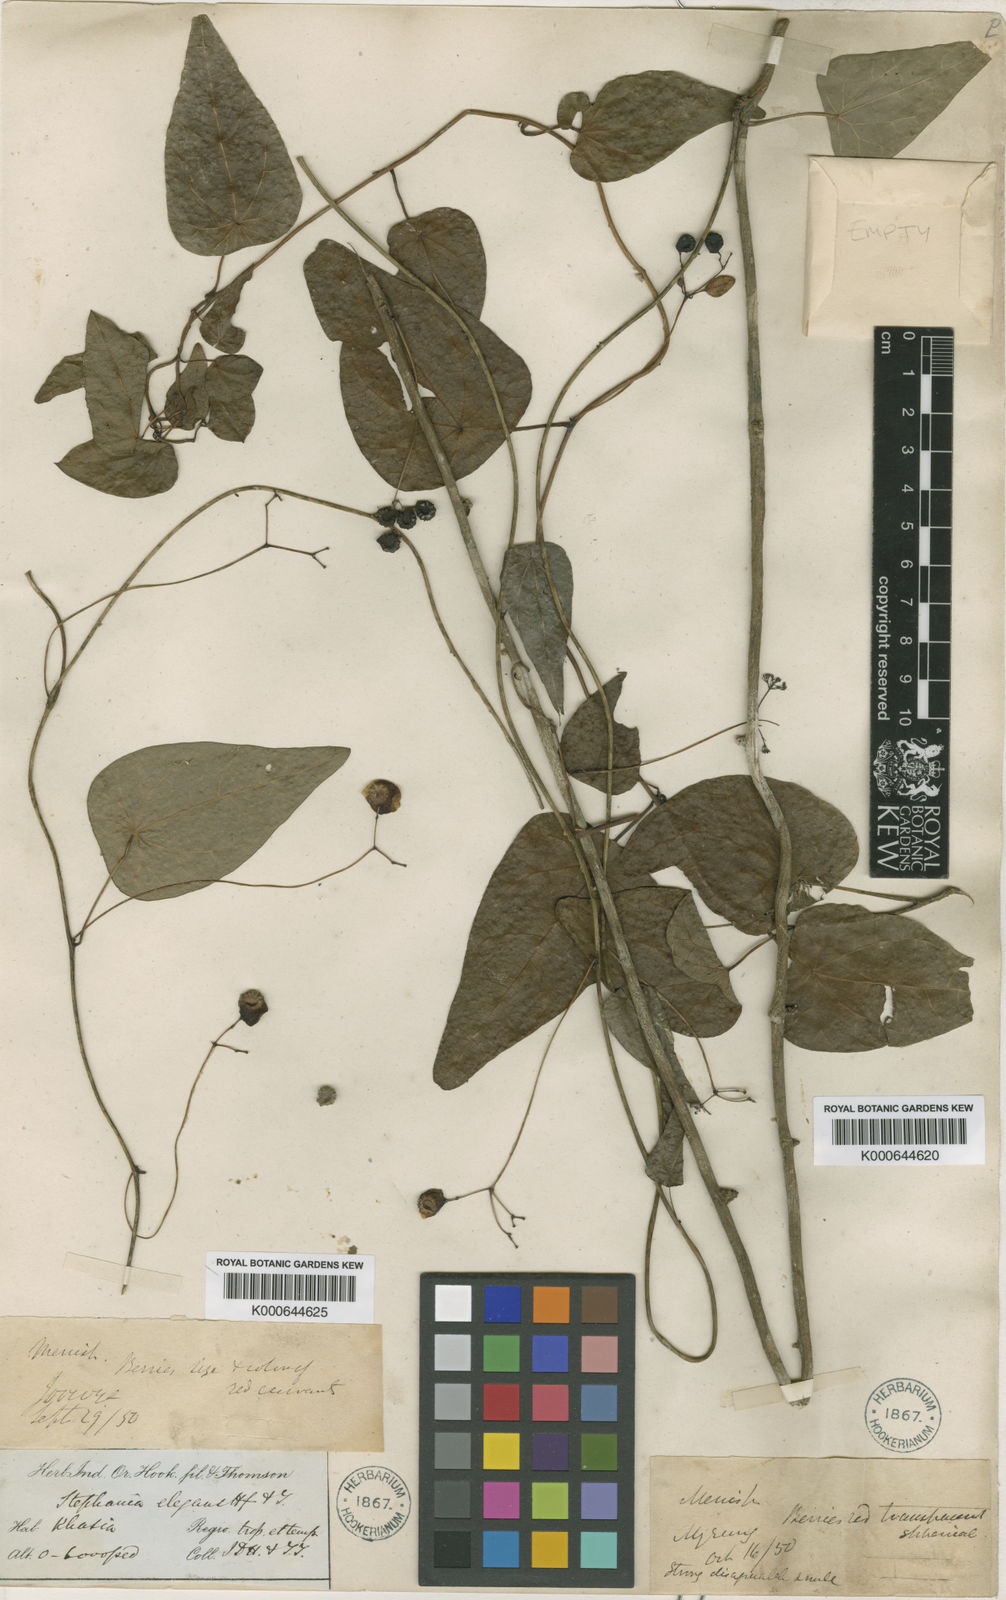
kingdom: Plantae
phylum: Tracheophyta
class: Magnoliopsida
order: Ranunculales
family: Menispermaceae
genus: Stephania
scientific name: Stephania elegans
